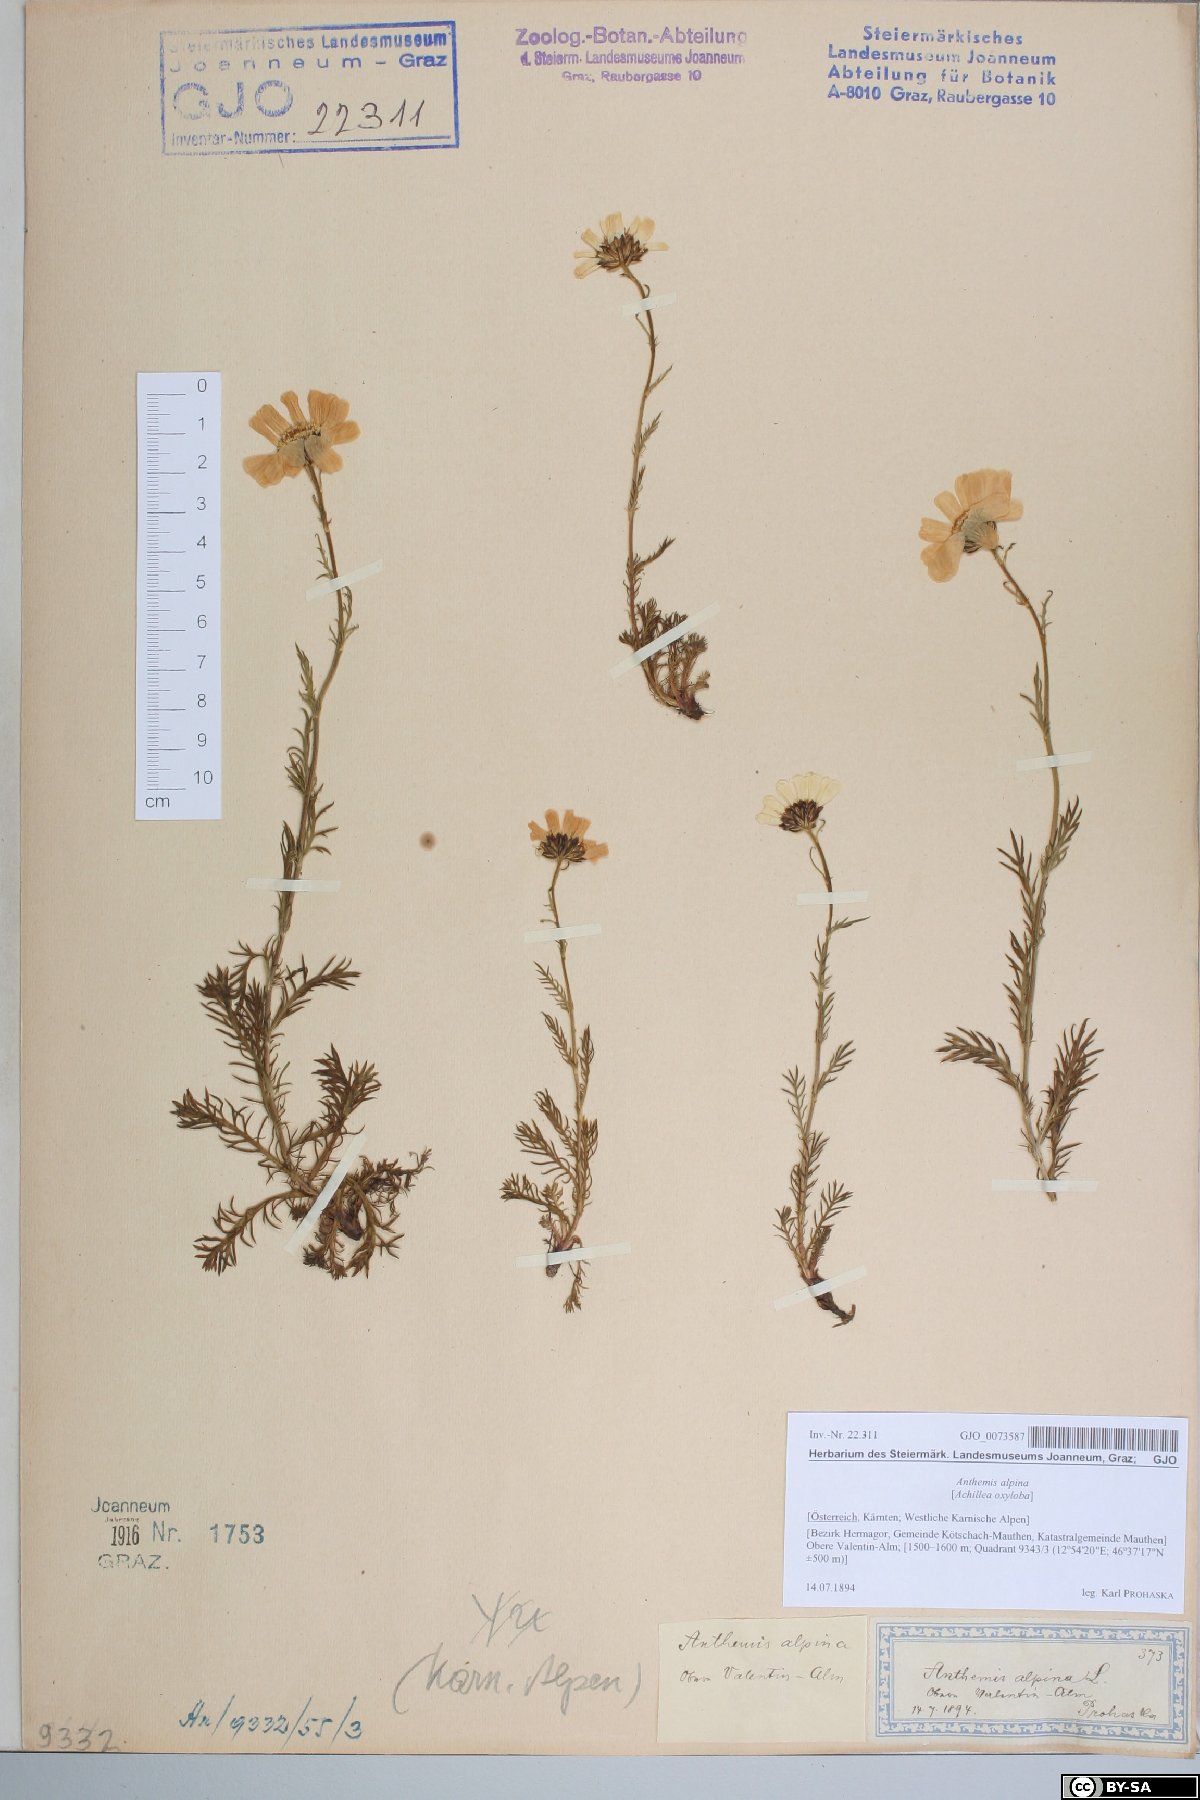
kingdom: Plantae
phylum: Tracheophyta
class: Magnoliopsida
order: Asterales
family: Asteraceae
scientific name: Asteraceae
